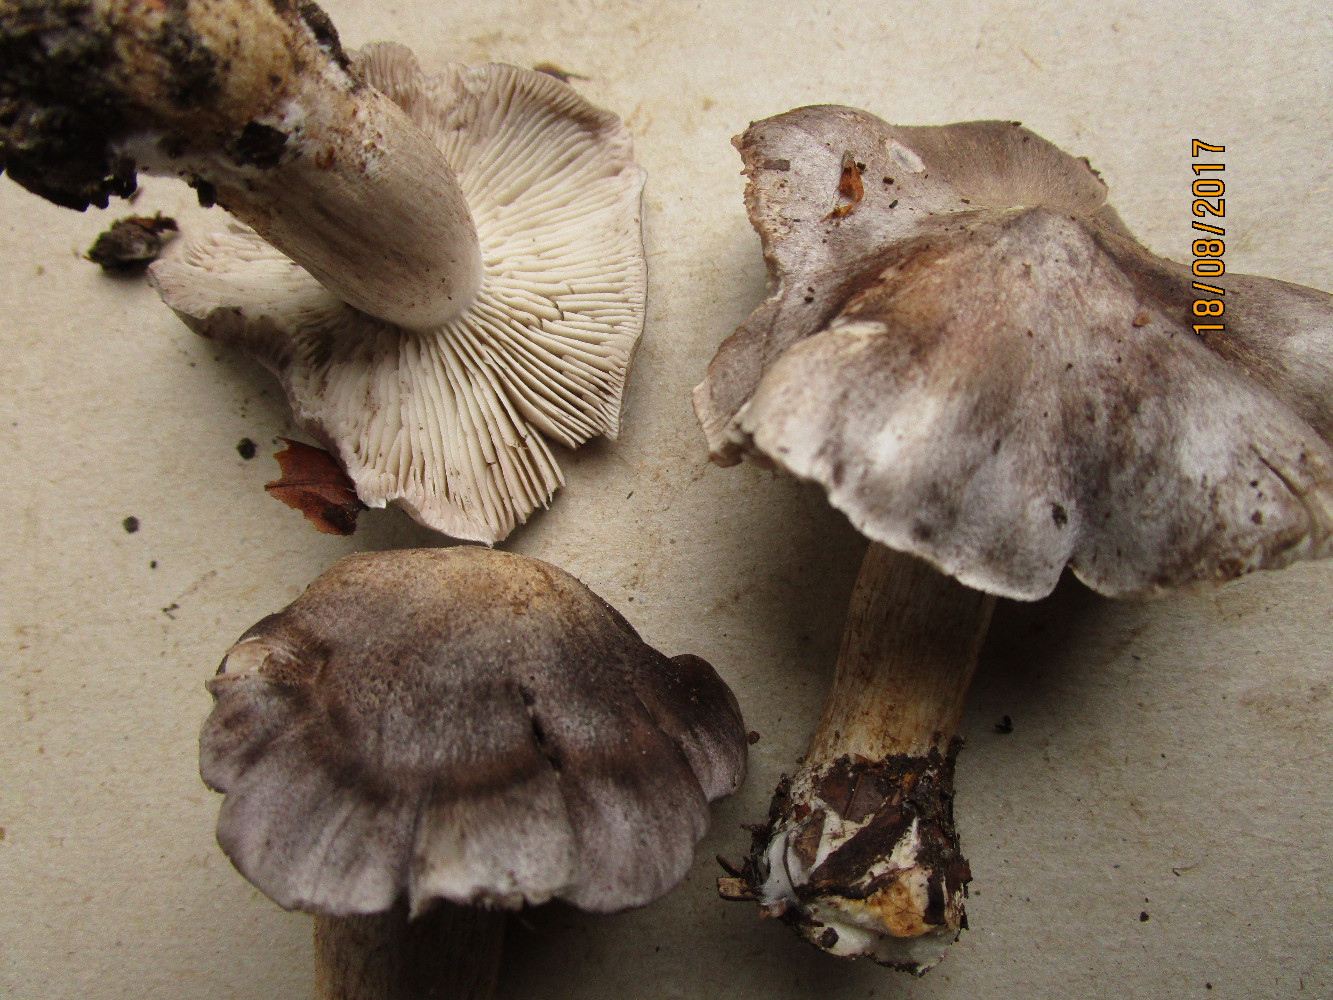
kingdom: Fungi
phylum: Basidiomycota
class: Agaricomycetes
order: Agaricales
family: Tricholomataceae
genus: Tricholoma
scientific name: Tricholoma sciodes
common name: stribet ridderhat
